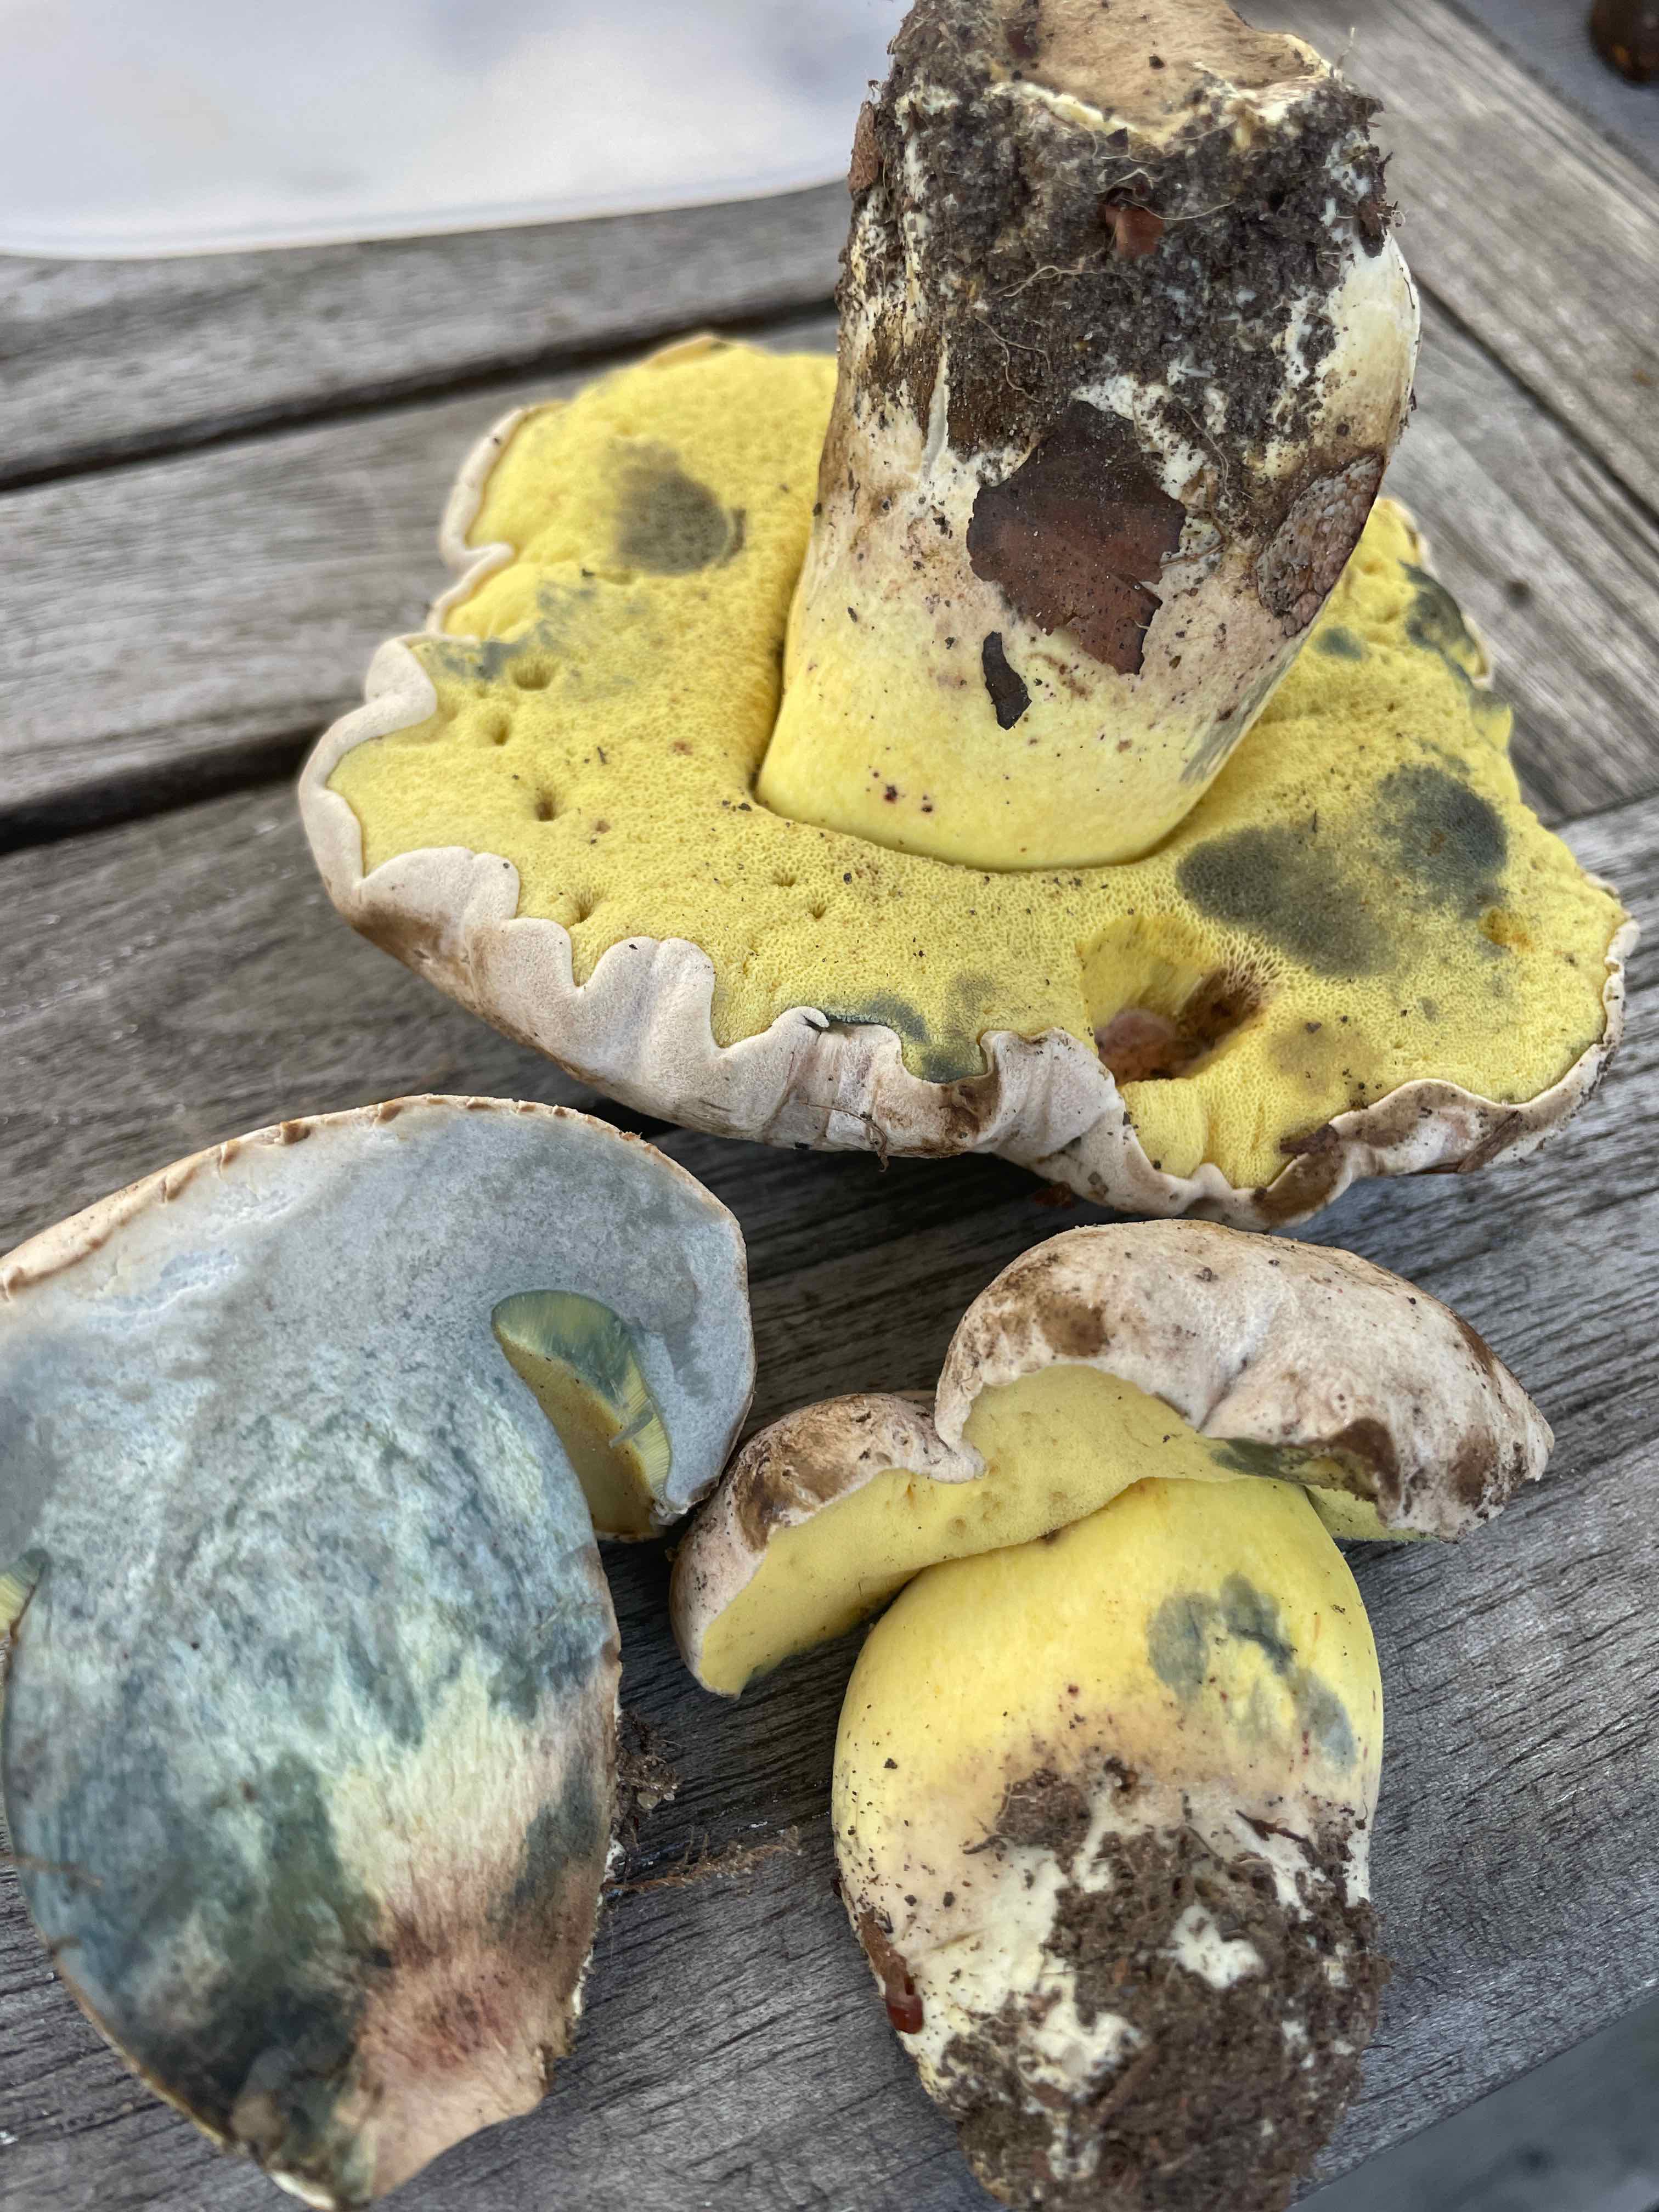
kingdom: Fungi
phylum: Basidiomycota
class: Agaricomycetes
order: Boletales
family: Boletaceae
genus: Caloboletus
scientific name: Caloboletus radicans
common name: rod-rørhat
